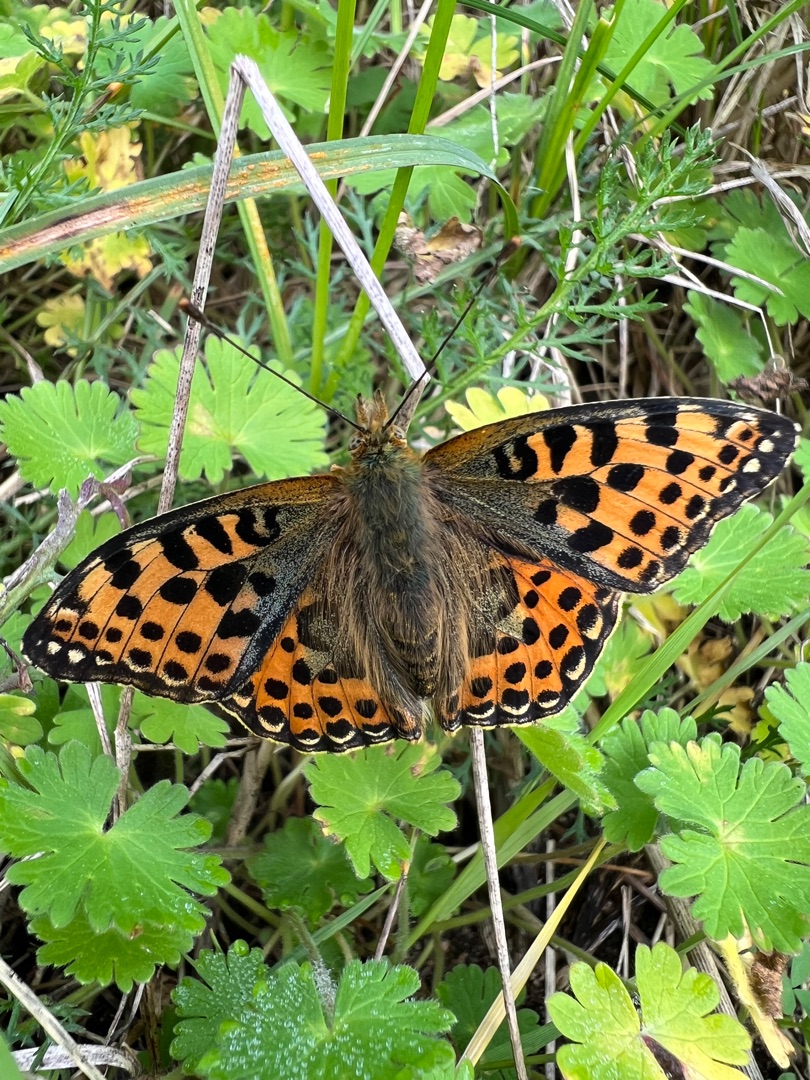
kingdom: Animalia
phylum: Arthropoda
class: Insecta
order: Lepidoptera
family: Nymphalidae
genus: Issoria
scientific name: Issoria lathonia
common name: Storplettet perlemorsommerfugl
